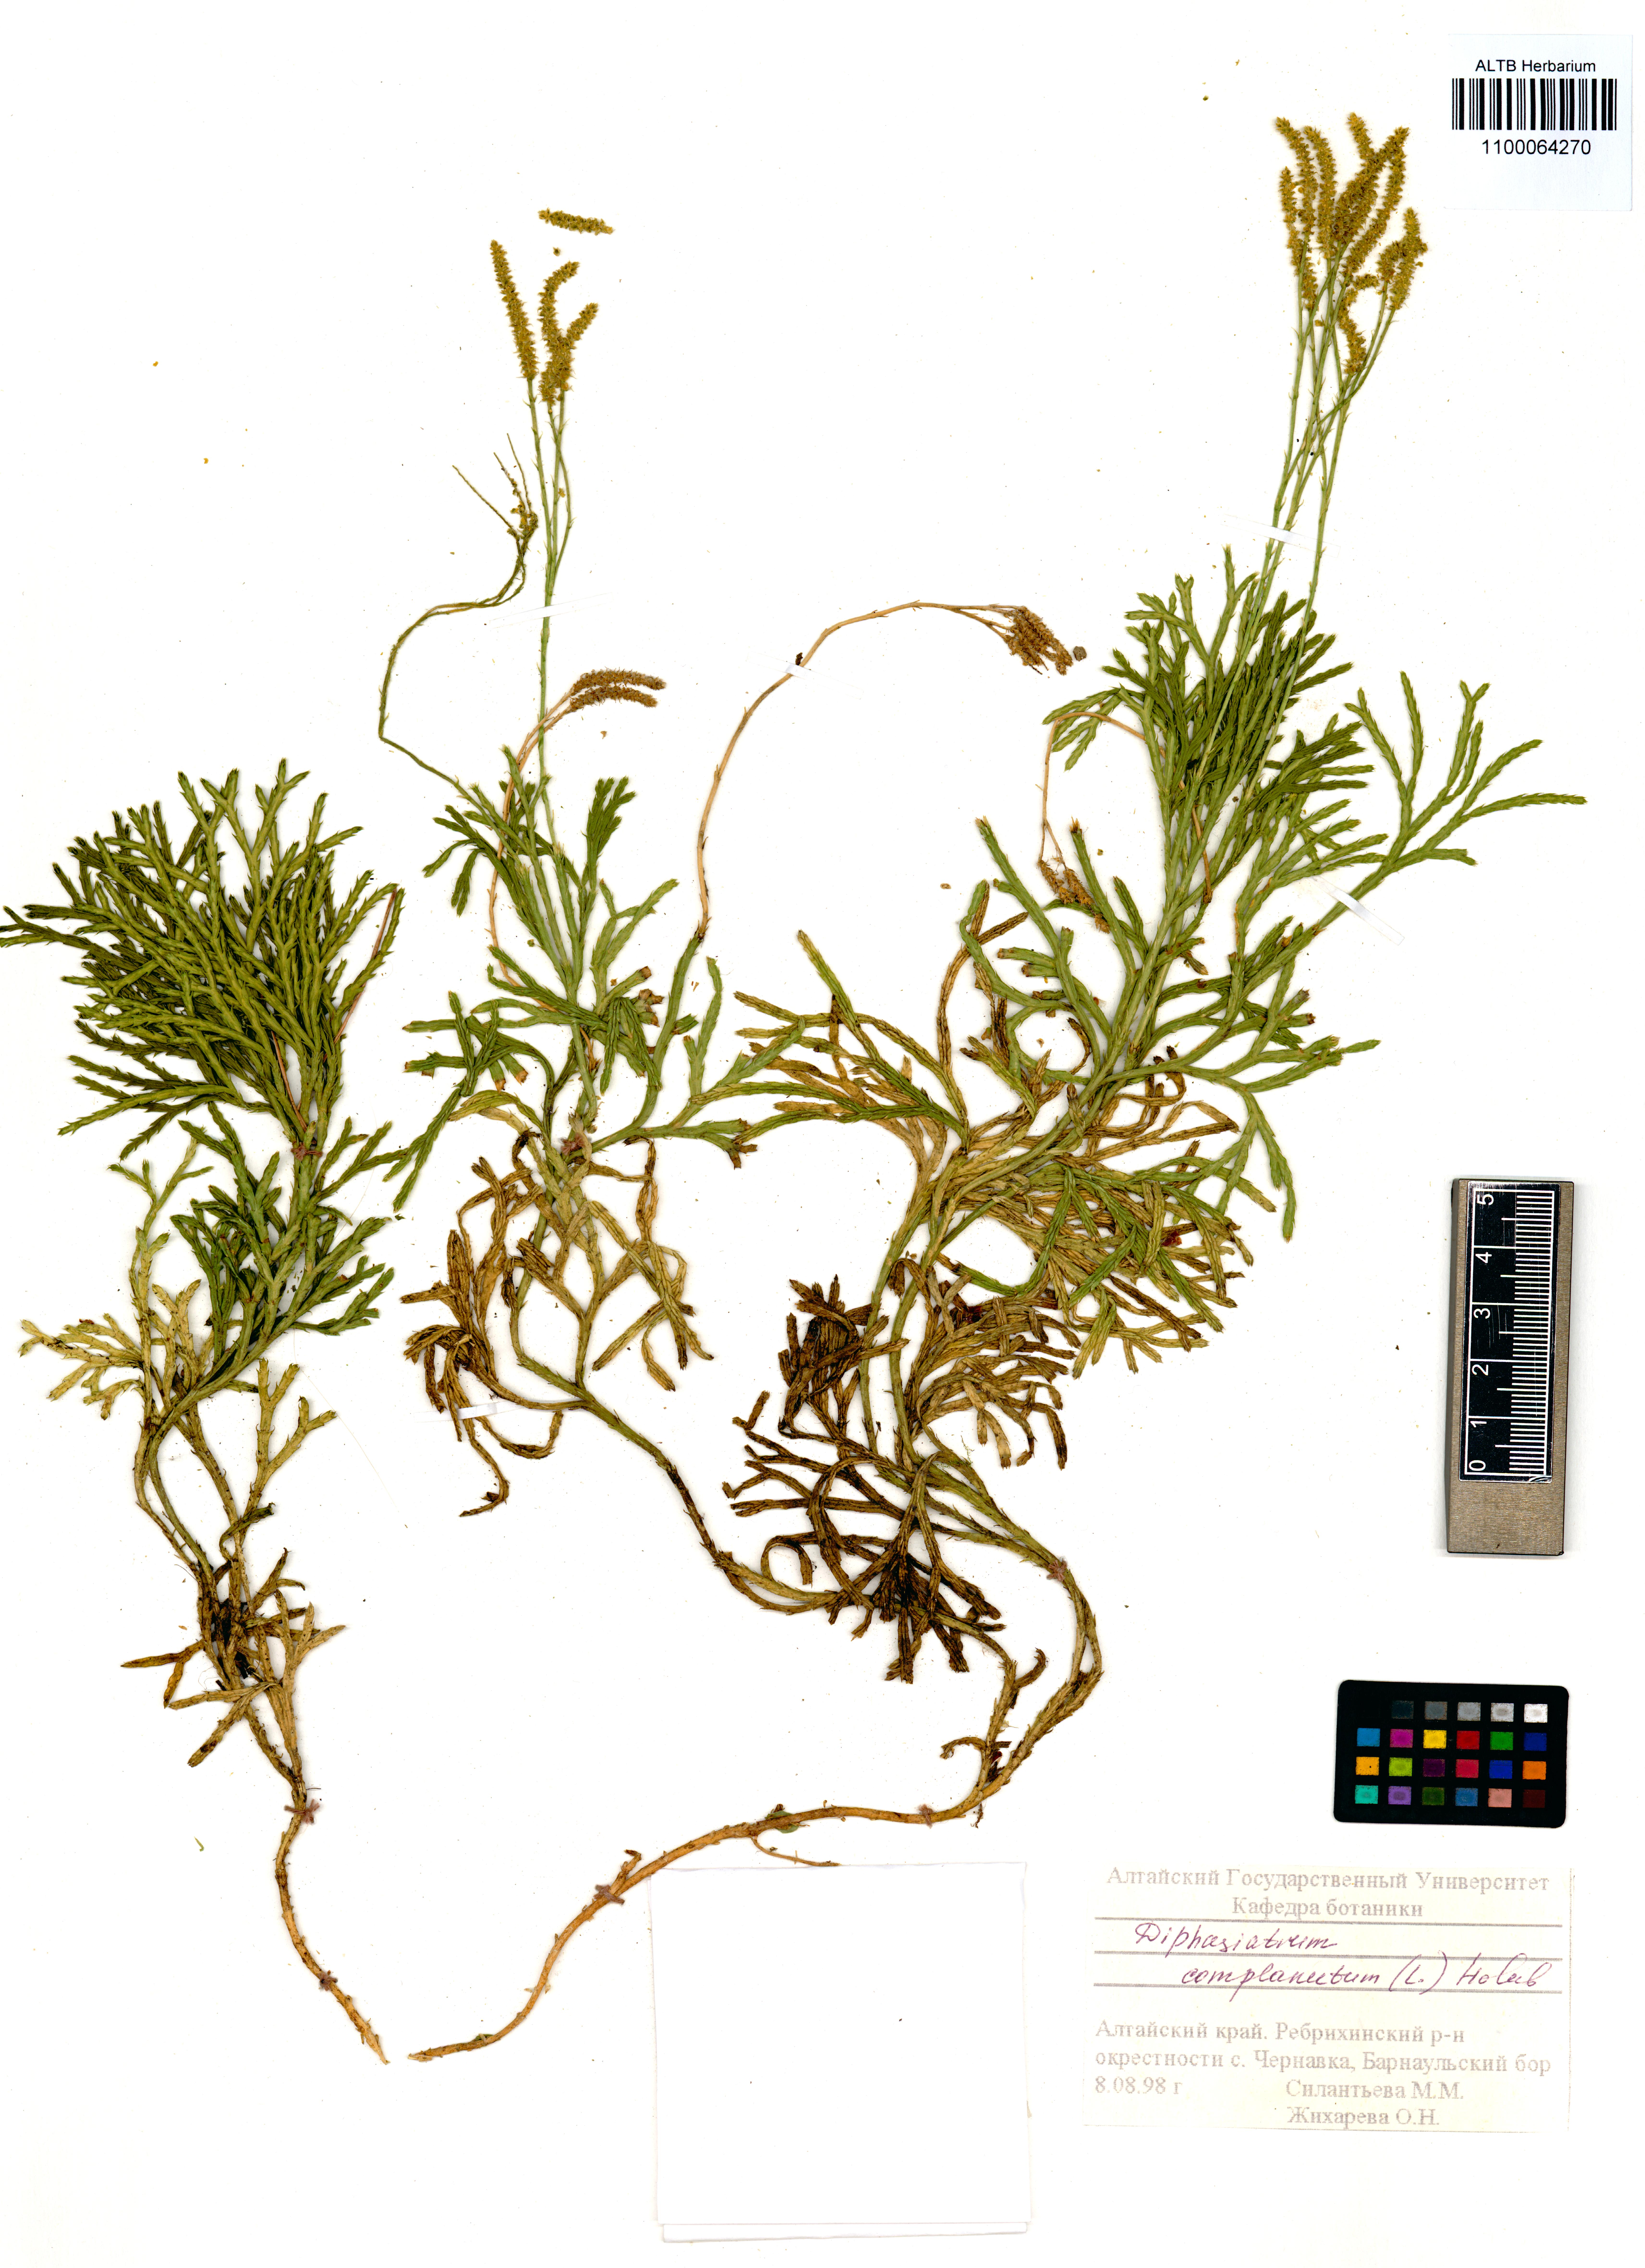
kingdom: Plantae
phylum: Tracheophyta
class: Lycopodiopsida
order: Lycopodiales
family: Lycopodiaceae
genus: Diphasiastrum
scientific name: Diphasiastrum complanatum
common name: Northern running-pine
